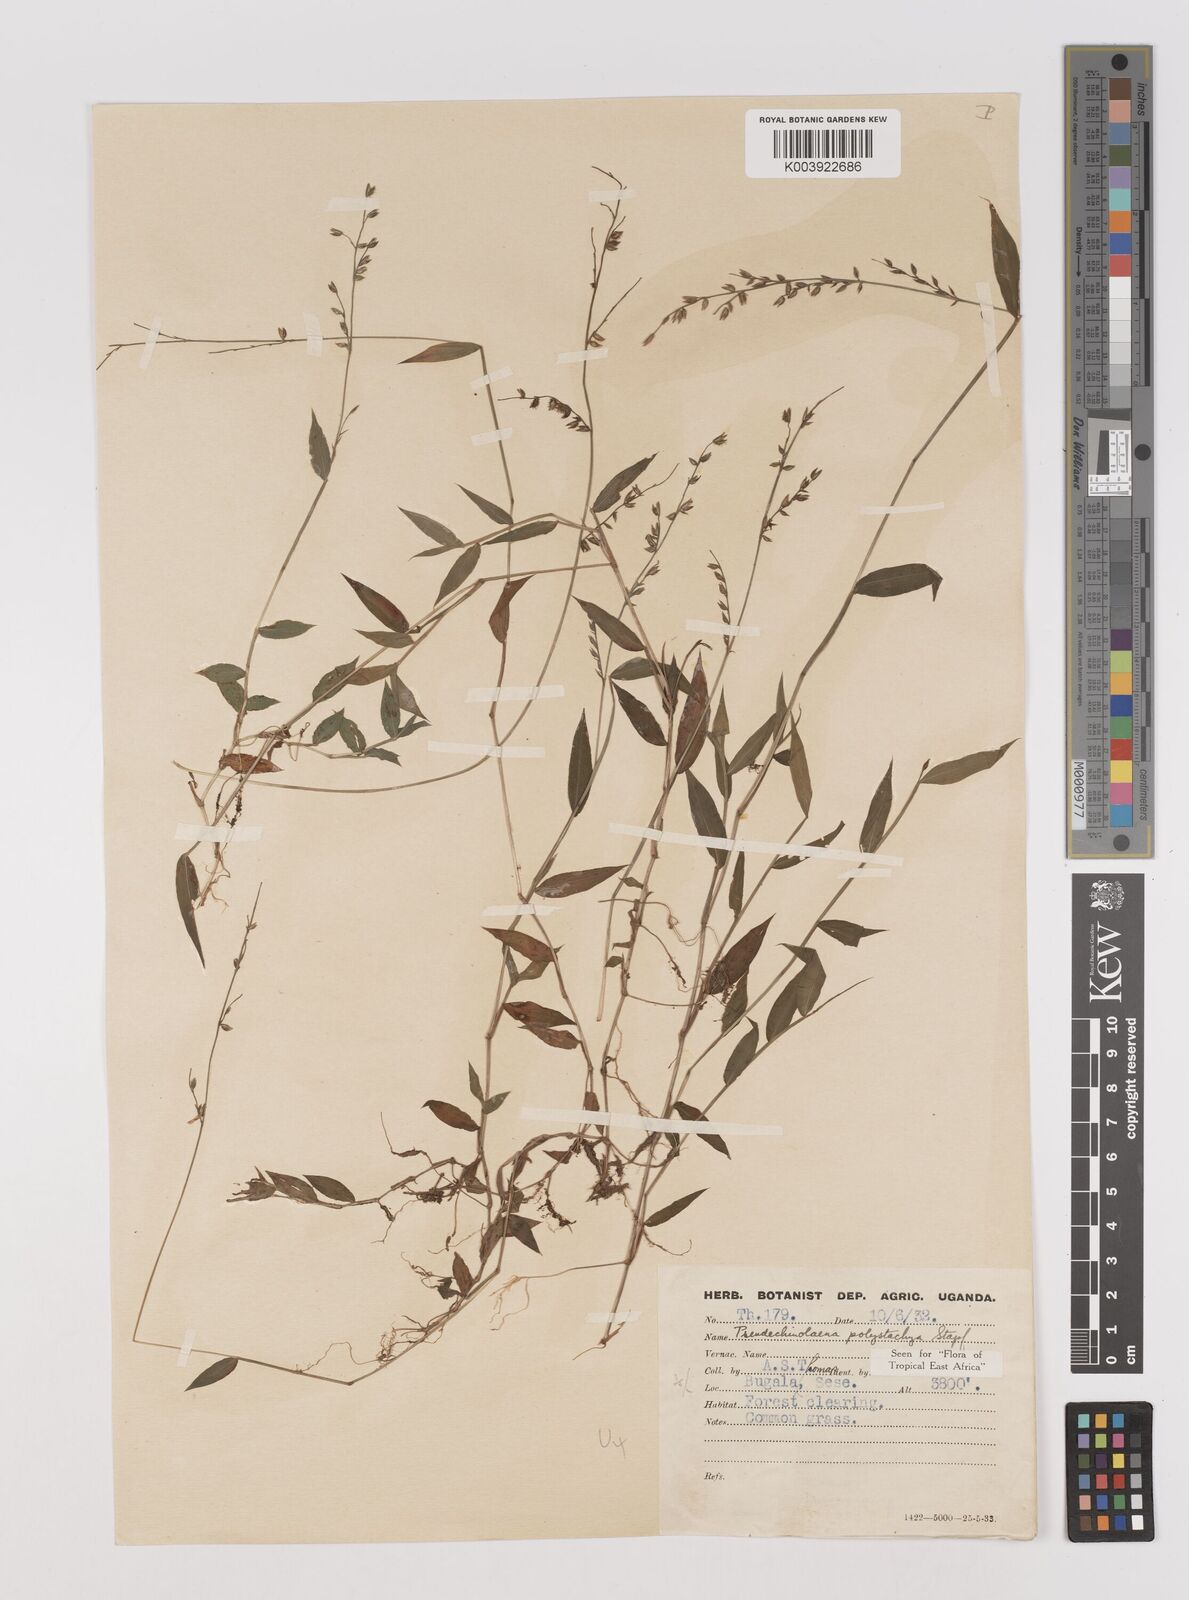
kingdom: Plantae
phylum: Tracheophyta
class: Liliopsida
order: Poales
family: Poaceae
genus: Pseudechinolaena
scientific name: Pseudechinolaena polystachya
